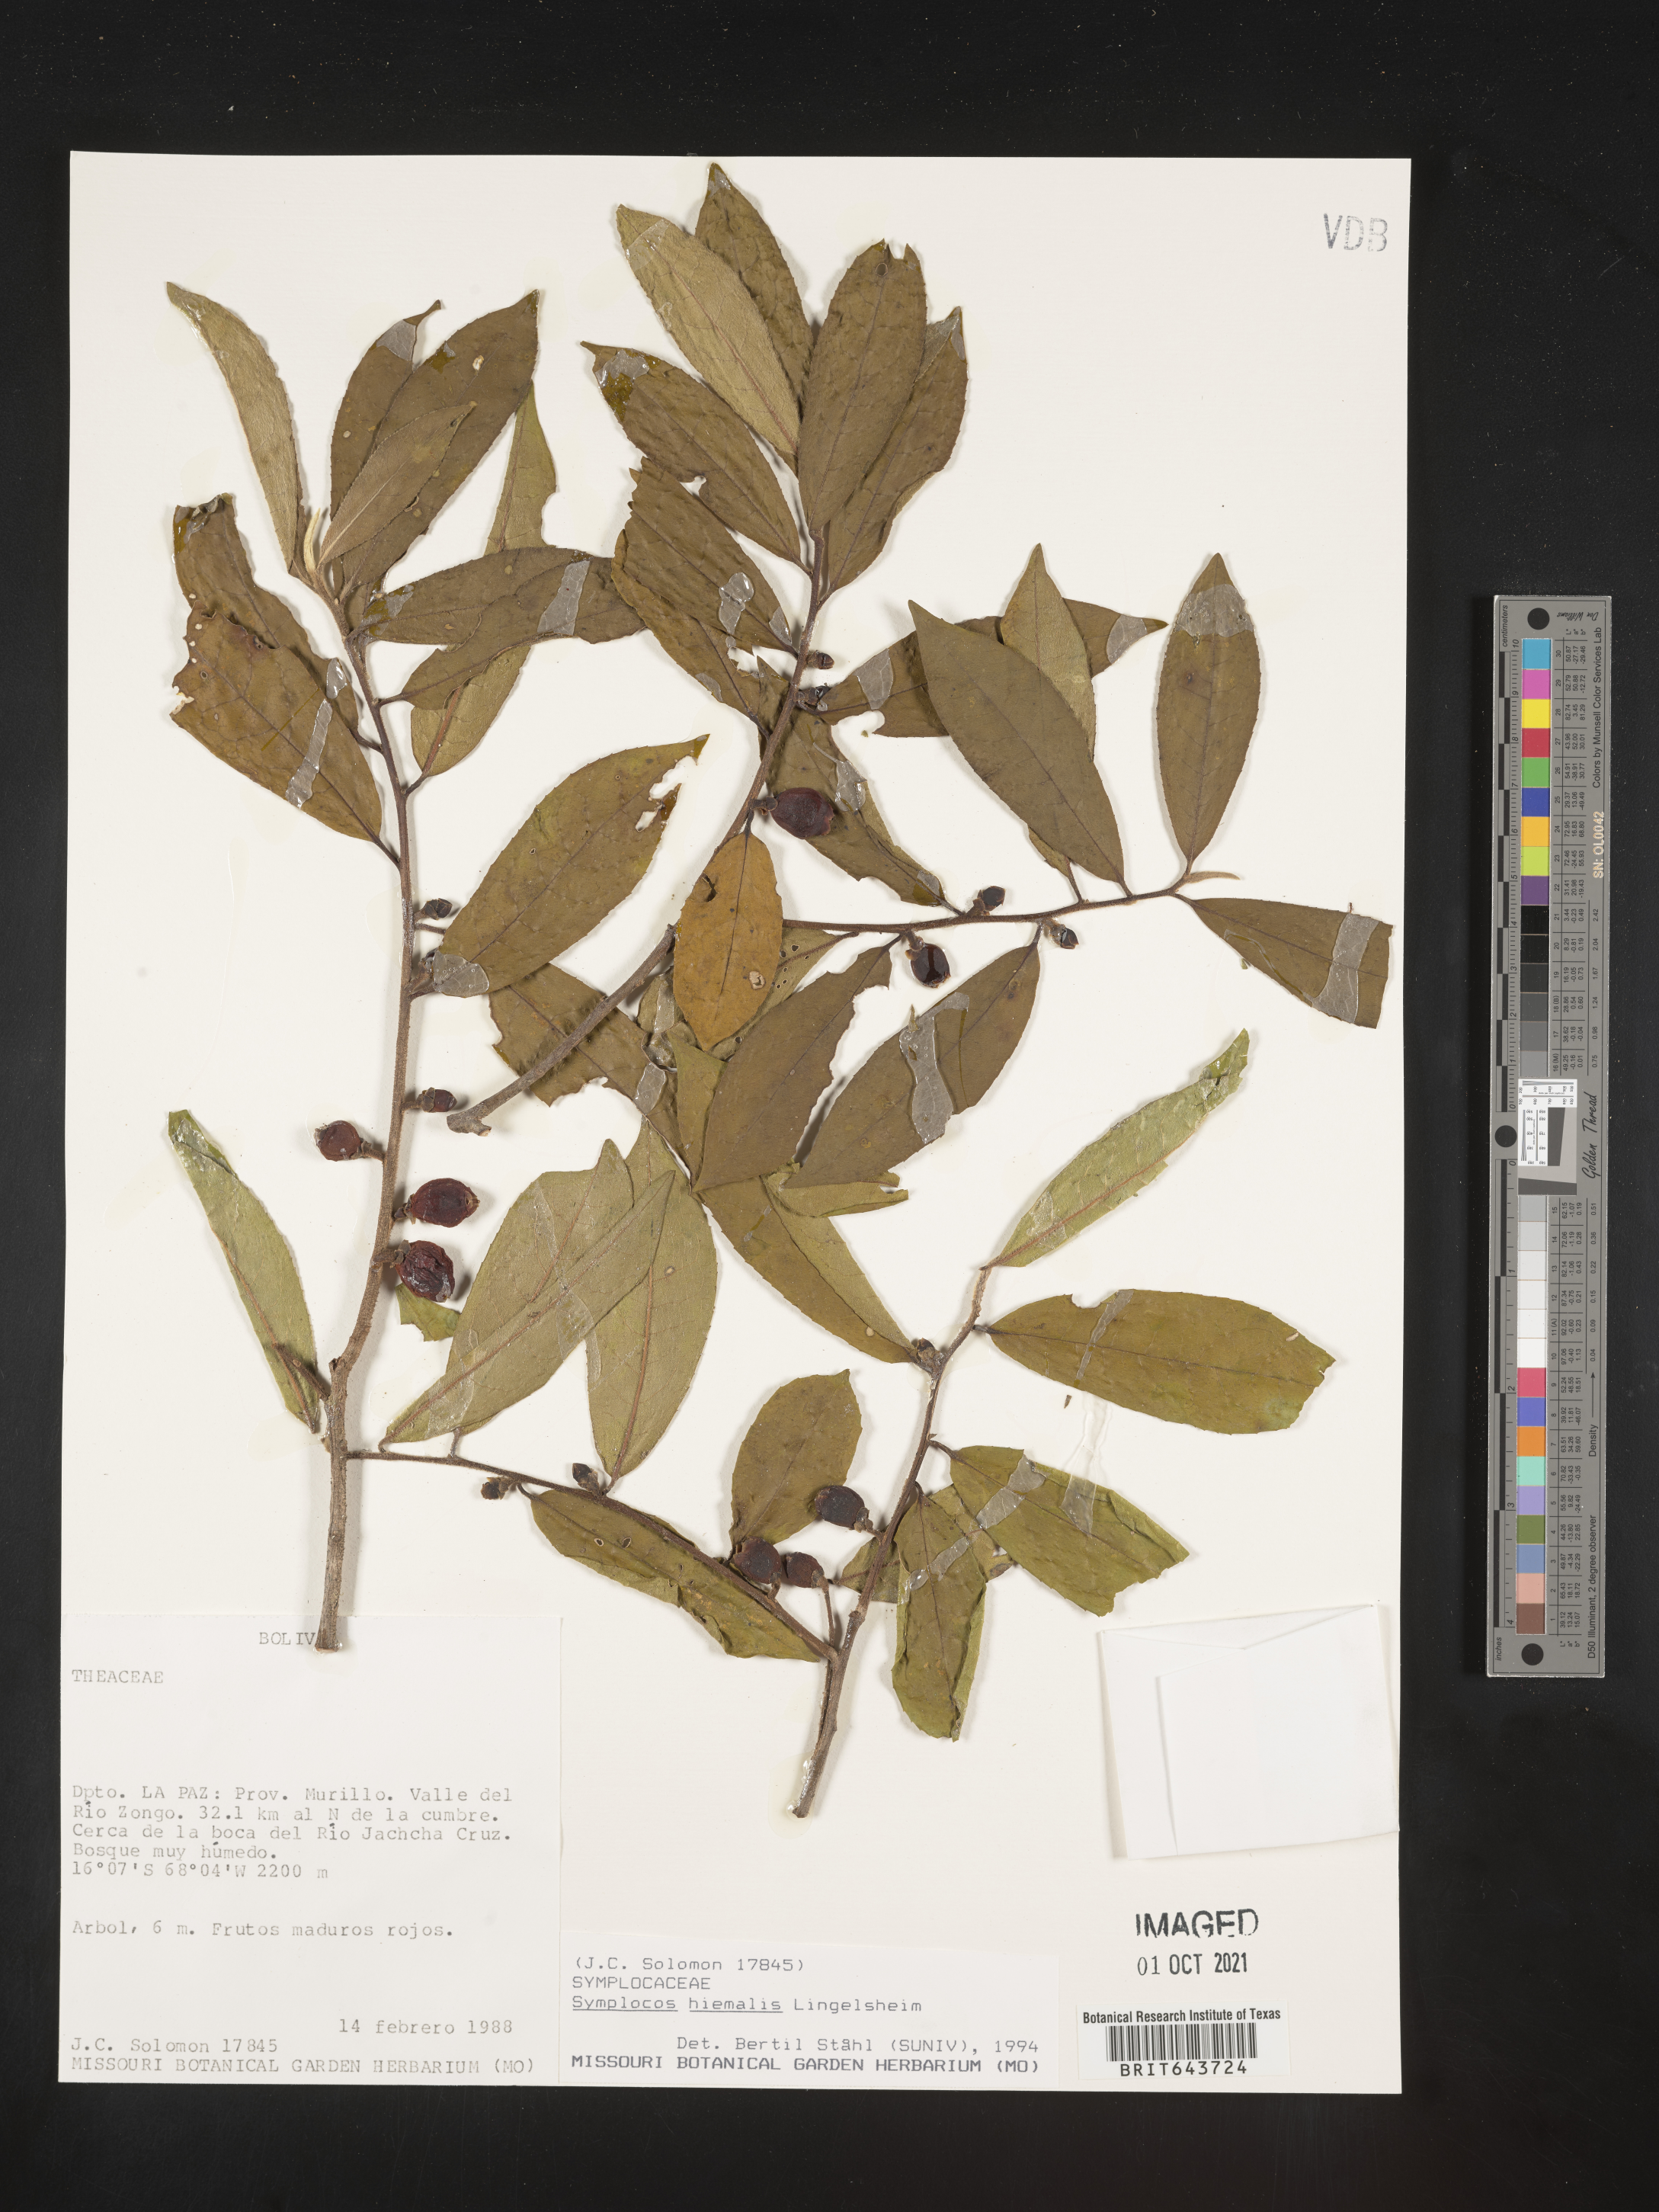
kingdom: Plantae
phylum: Tracheophyta
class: Magnoliopsida
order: Ericales
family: Symplocaceae
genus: Symplocos
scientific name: Symplocos
